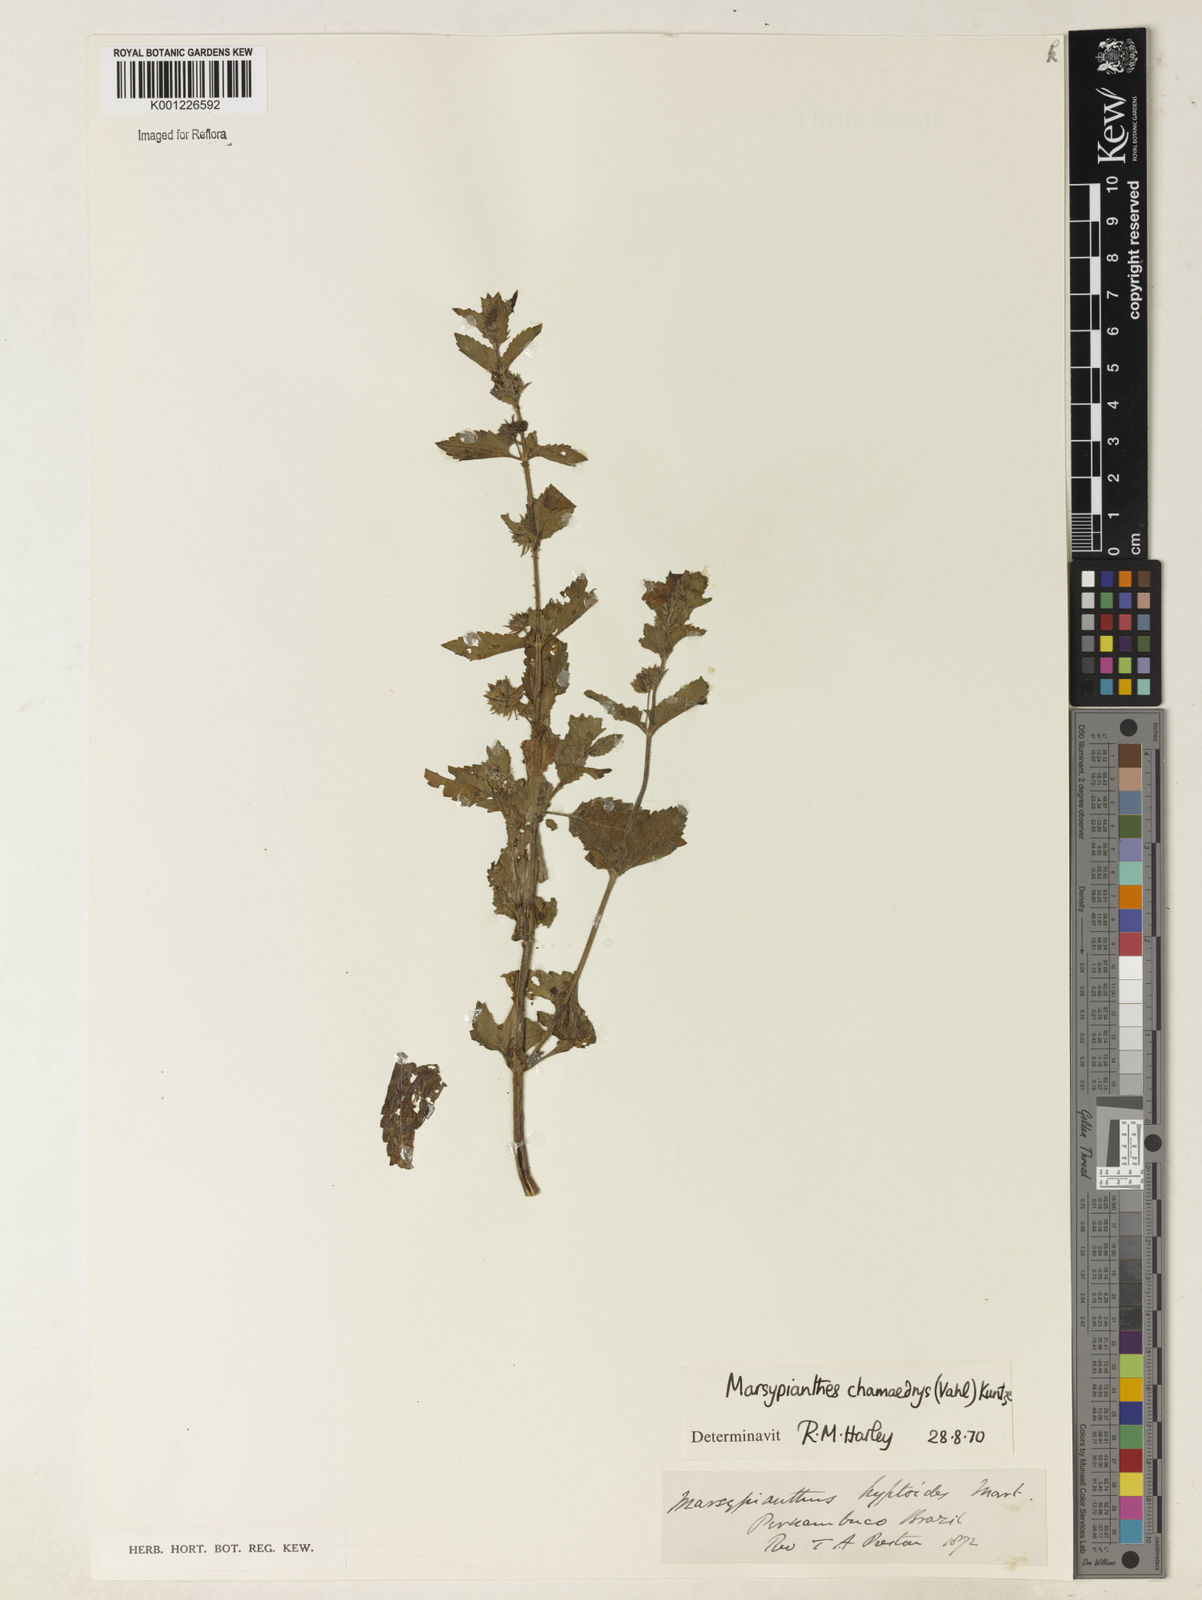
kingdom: Plantae
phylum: Tracheophyta
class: Magnoliopsida
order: Lamiales
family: Lamiaceae
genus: Marsypianthes
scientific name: Marsypianthes chamaedrys
